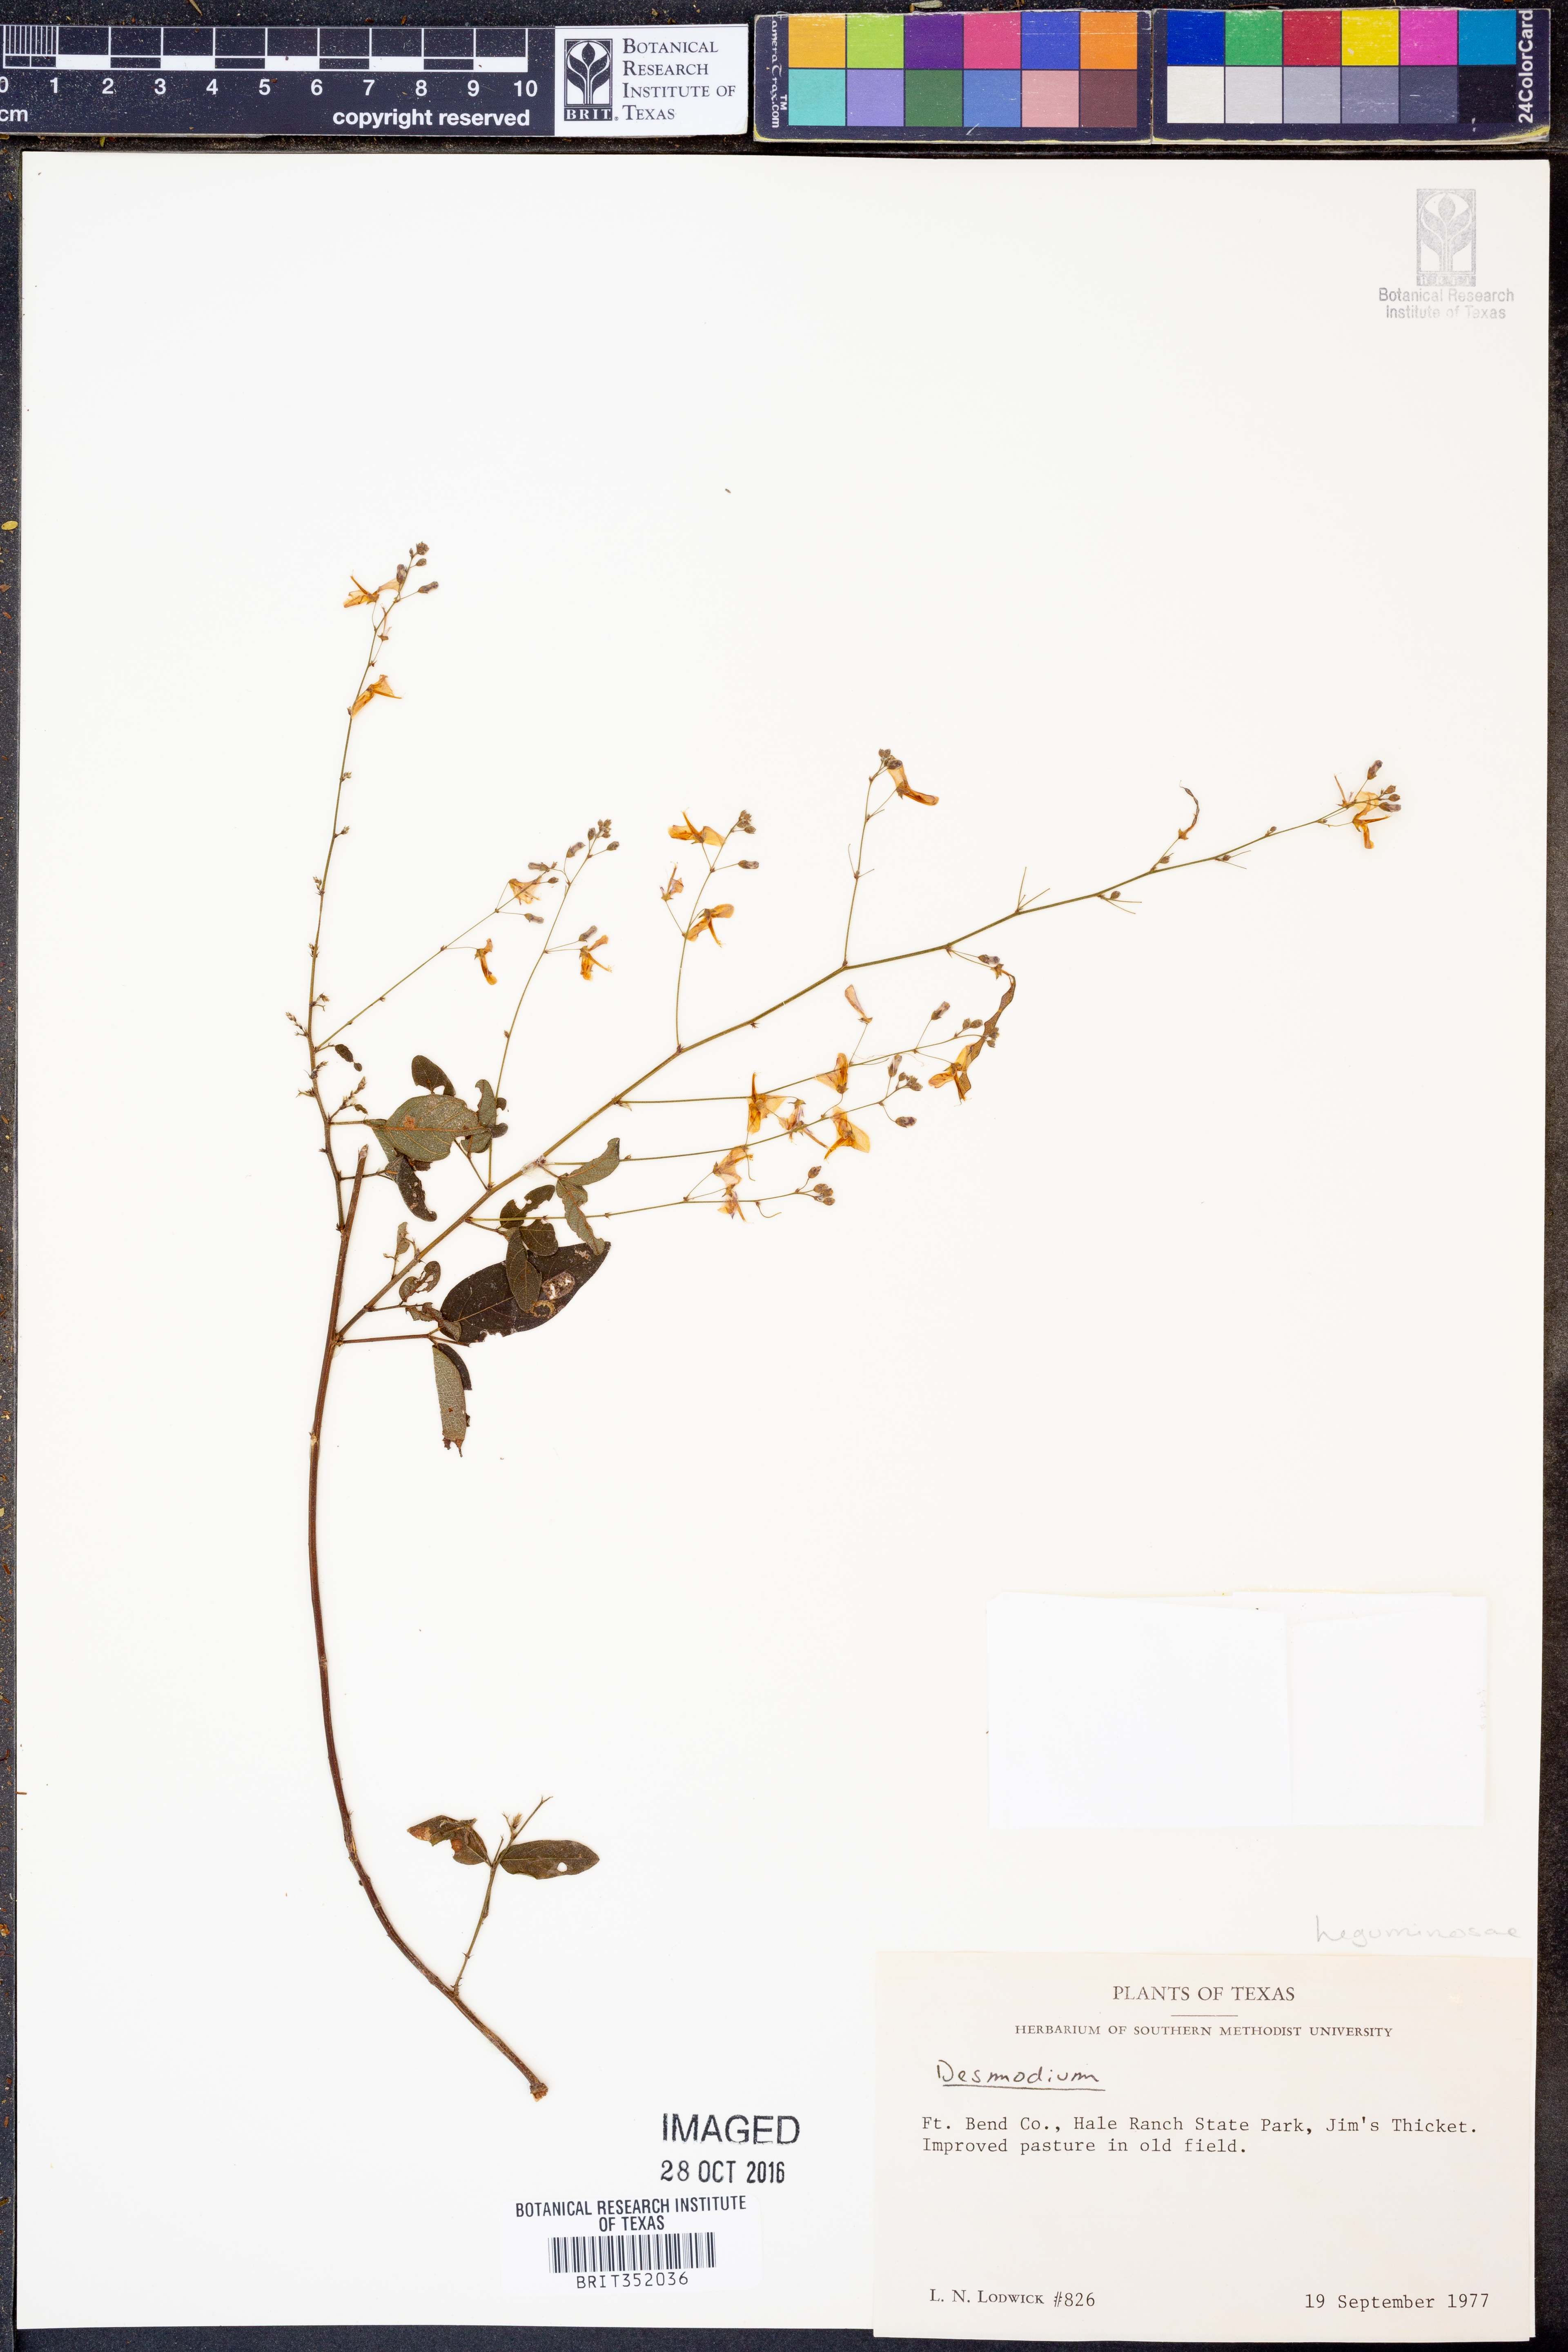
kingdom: Plantae
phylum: Tracheophyta
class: Magnoliopsida
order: Fabales
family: Fabaceae
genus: Desmodium
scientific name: Desmodium
